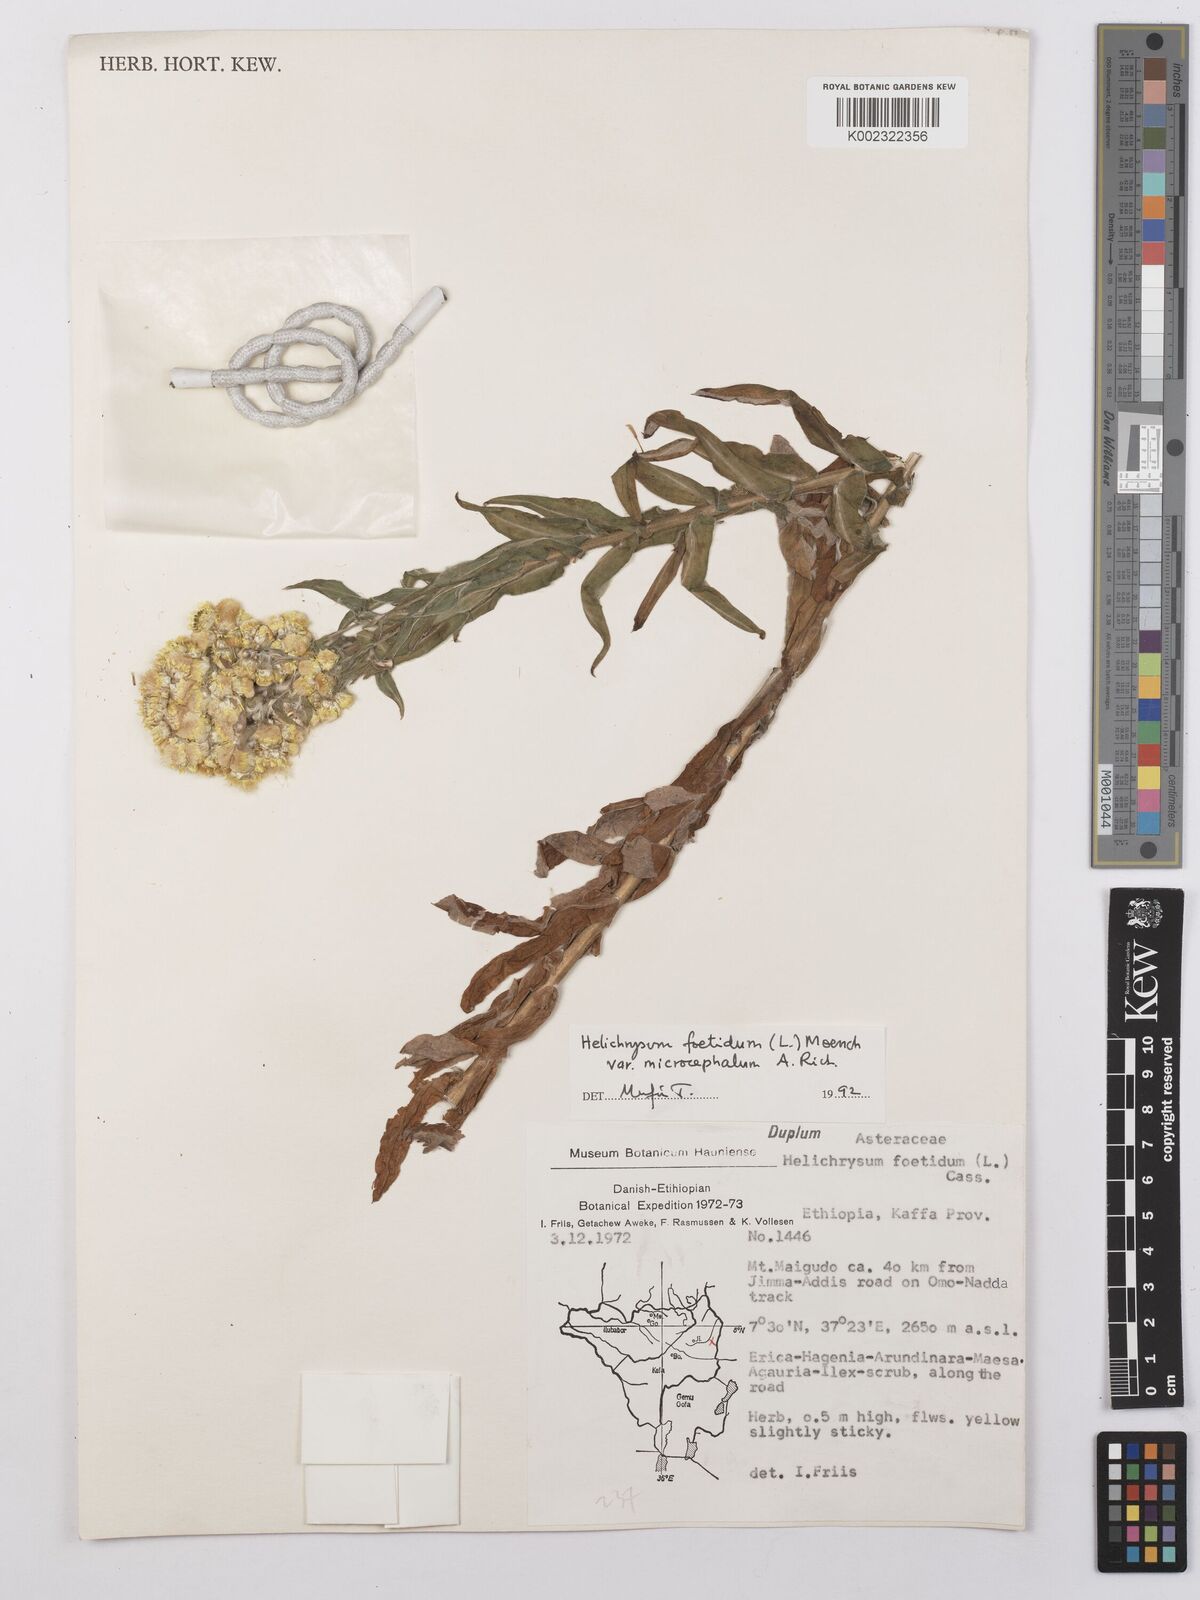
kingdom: Plantae
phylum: Tracheophyta
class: Magnoliopsida
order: Asterales
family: Asteraceae
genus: Helichrysum
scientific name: Helichrysum foetidum
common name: Stinking everlasting
